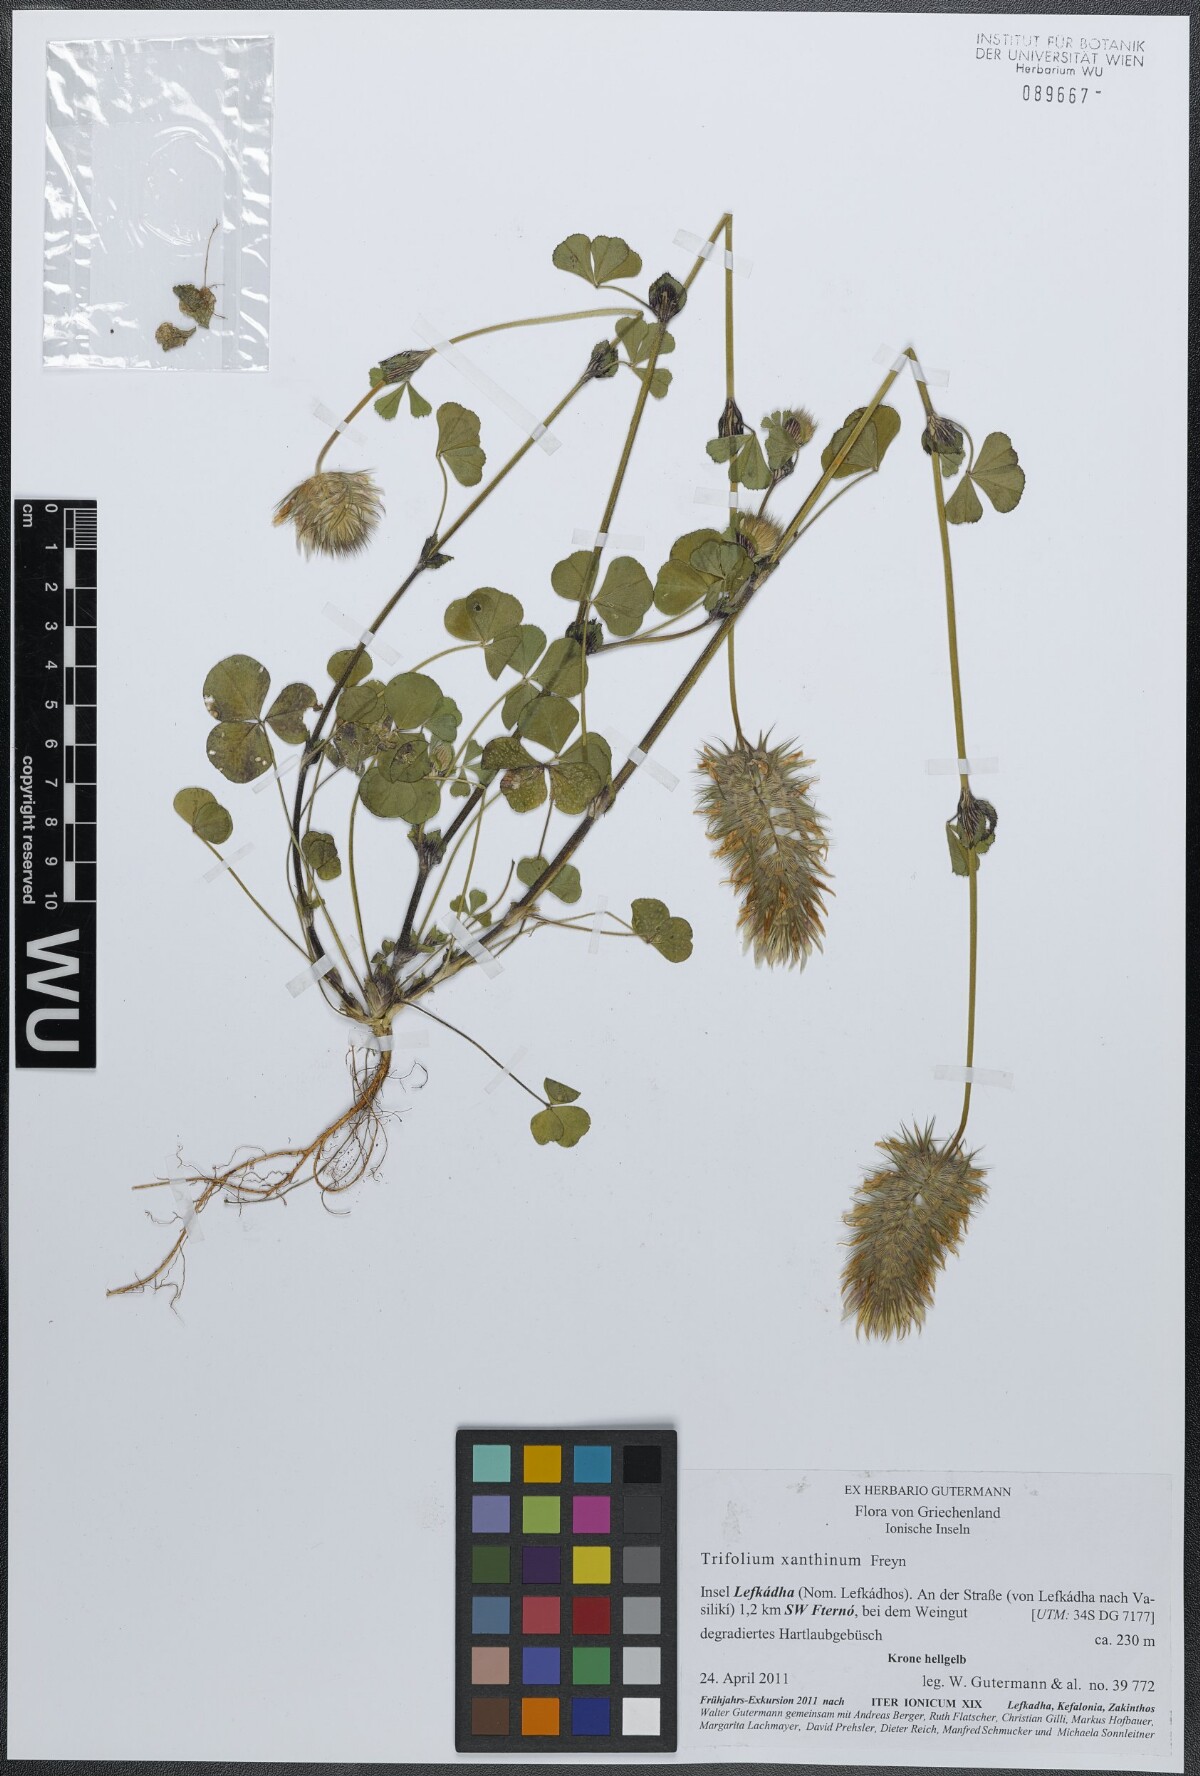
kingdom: Plantae
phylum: Tracheophyta
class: Magnoliopsida
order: Fabales
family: Fabaceae
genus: Trifolium
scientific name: Trifolium xanthinum
